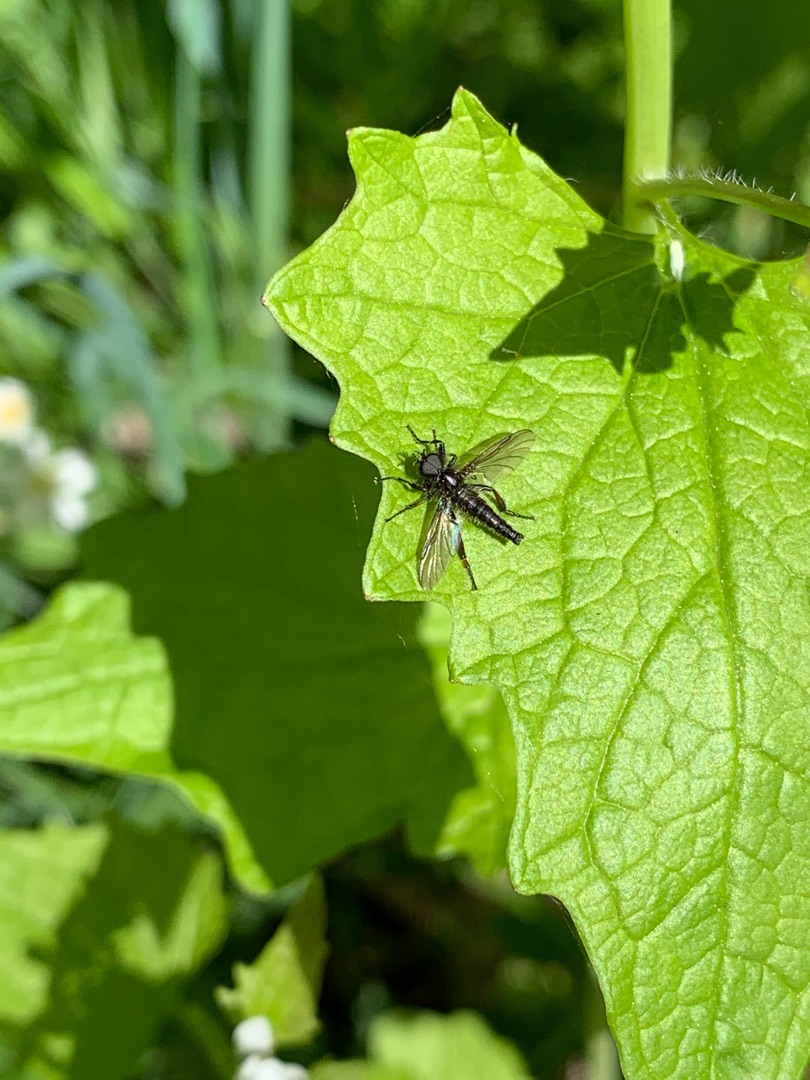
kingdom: Animalia
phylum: Arthropoda
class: Insecta
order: Diptera
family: Bibionidae
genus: Bibio
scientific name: Bibio lanigerus
